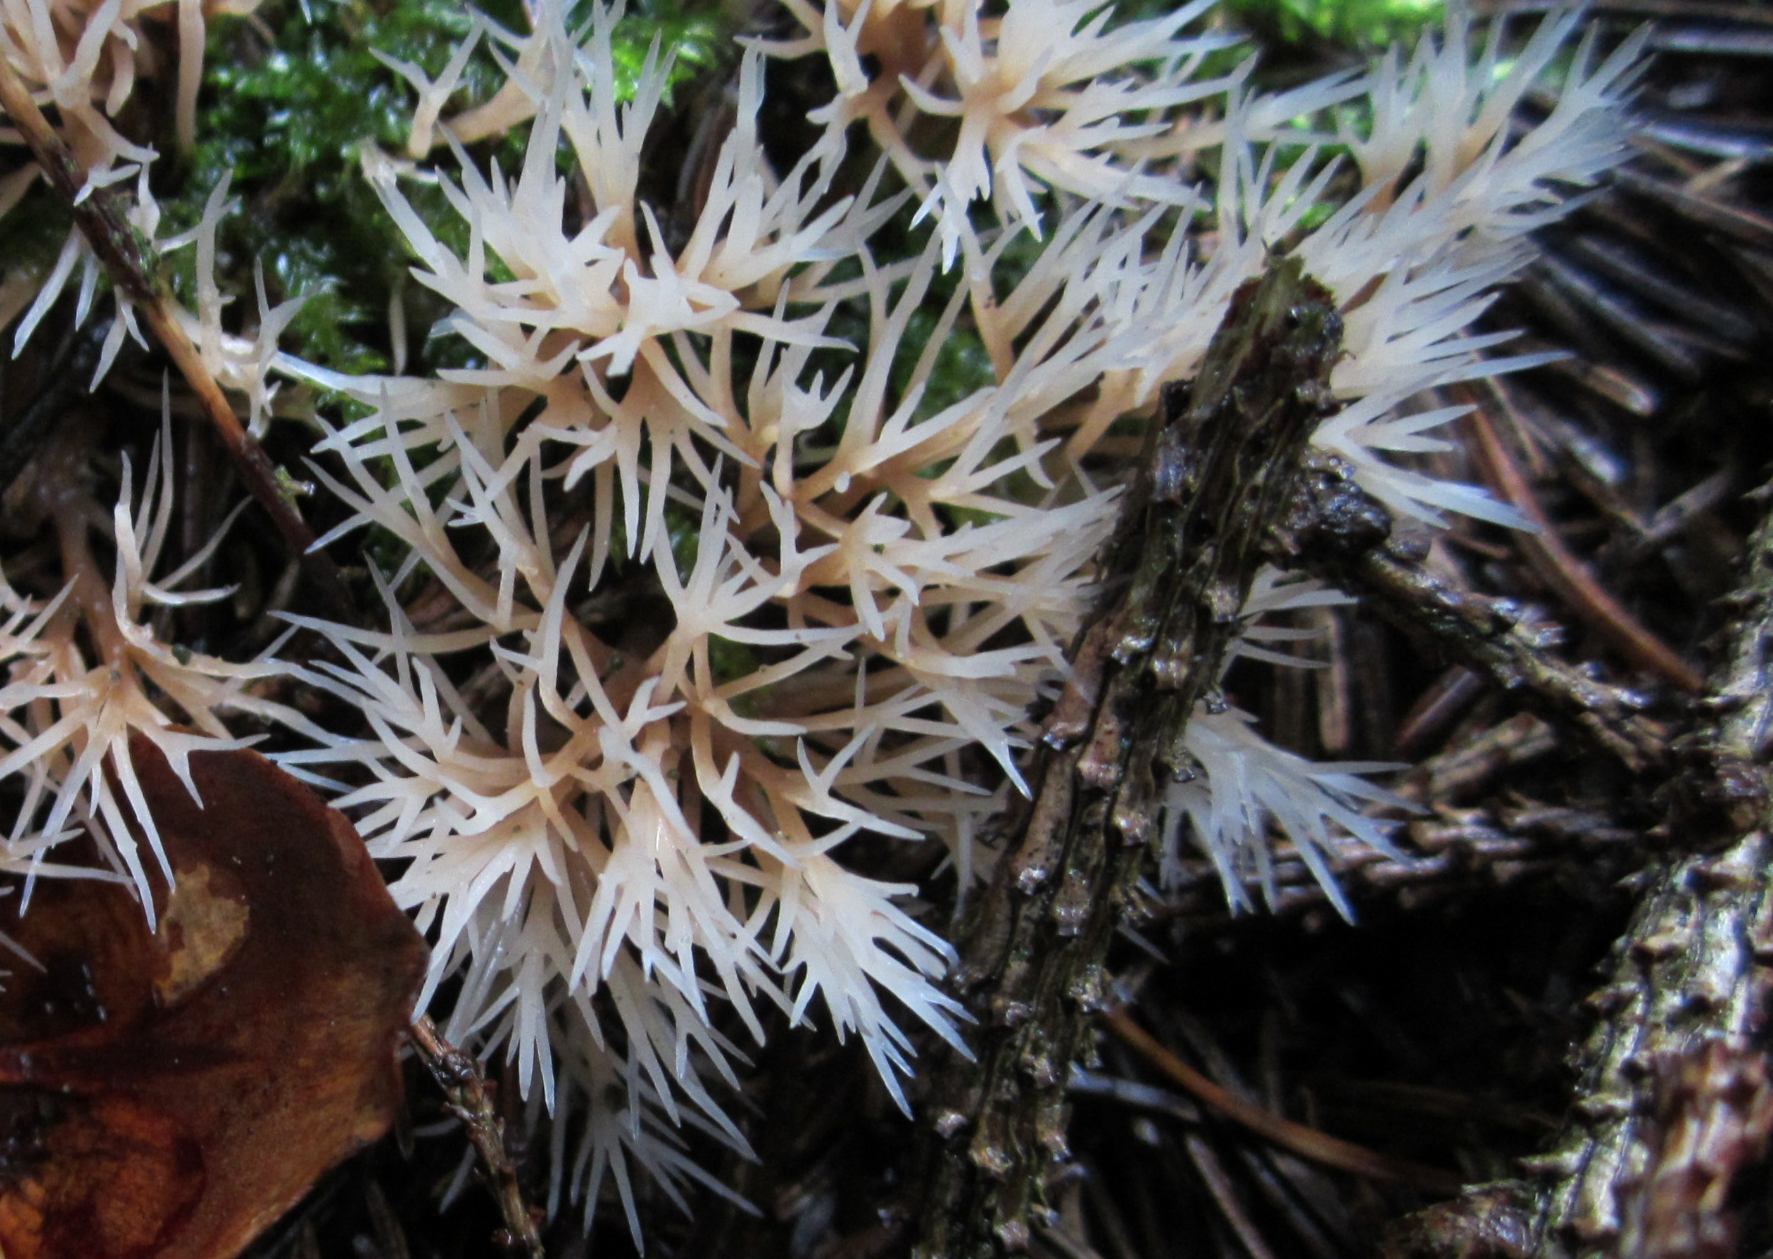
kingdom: Fungi
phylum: Basidiomycota
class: Agaricomycetes
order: Agaricales
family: Pterulaceae
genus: Pterula
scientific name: Pterula multifida
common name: busket fjerkølle
